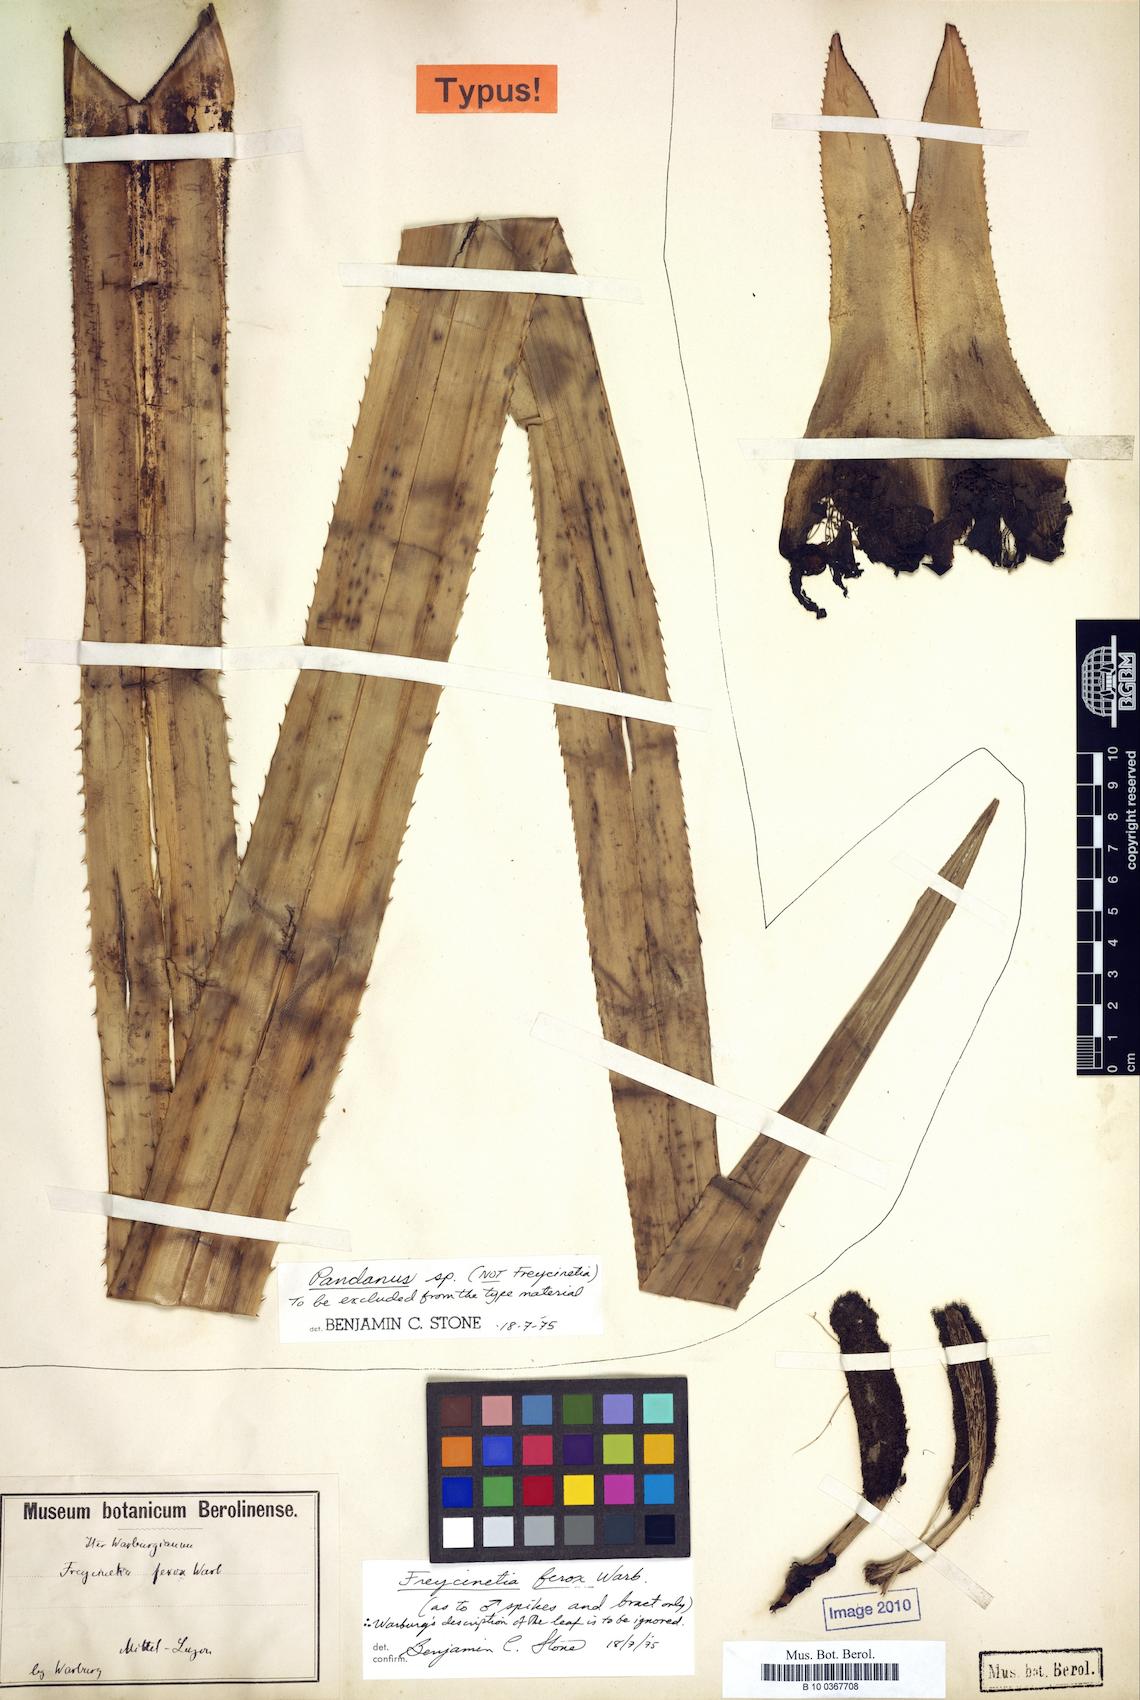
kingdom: Plantae
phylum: Tracheophyta
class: Liliopsida
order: Pandanales
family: Pandanaceae
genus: Freycinetia
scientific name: Freycinetia ferox
